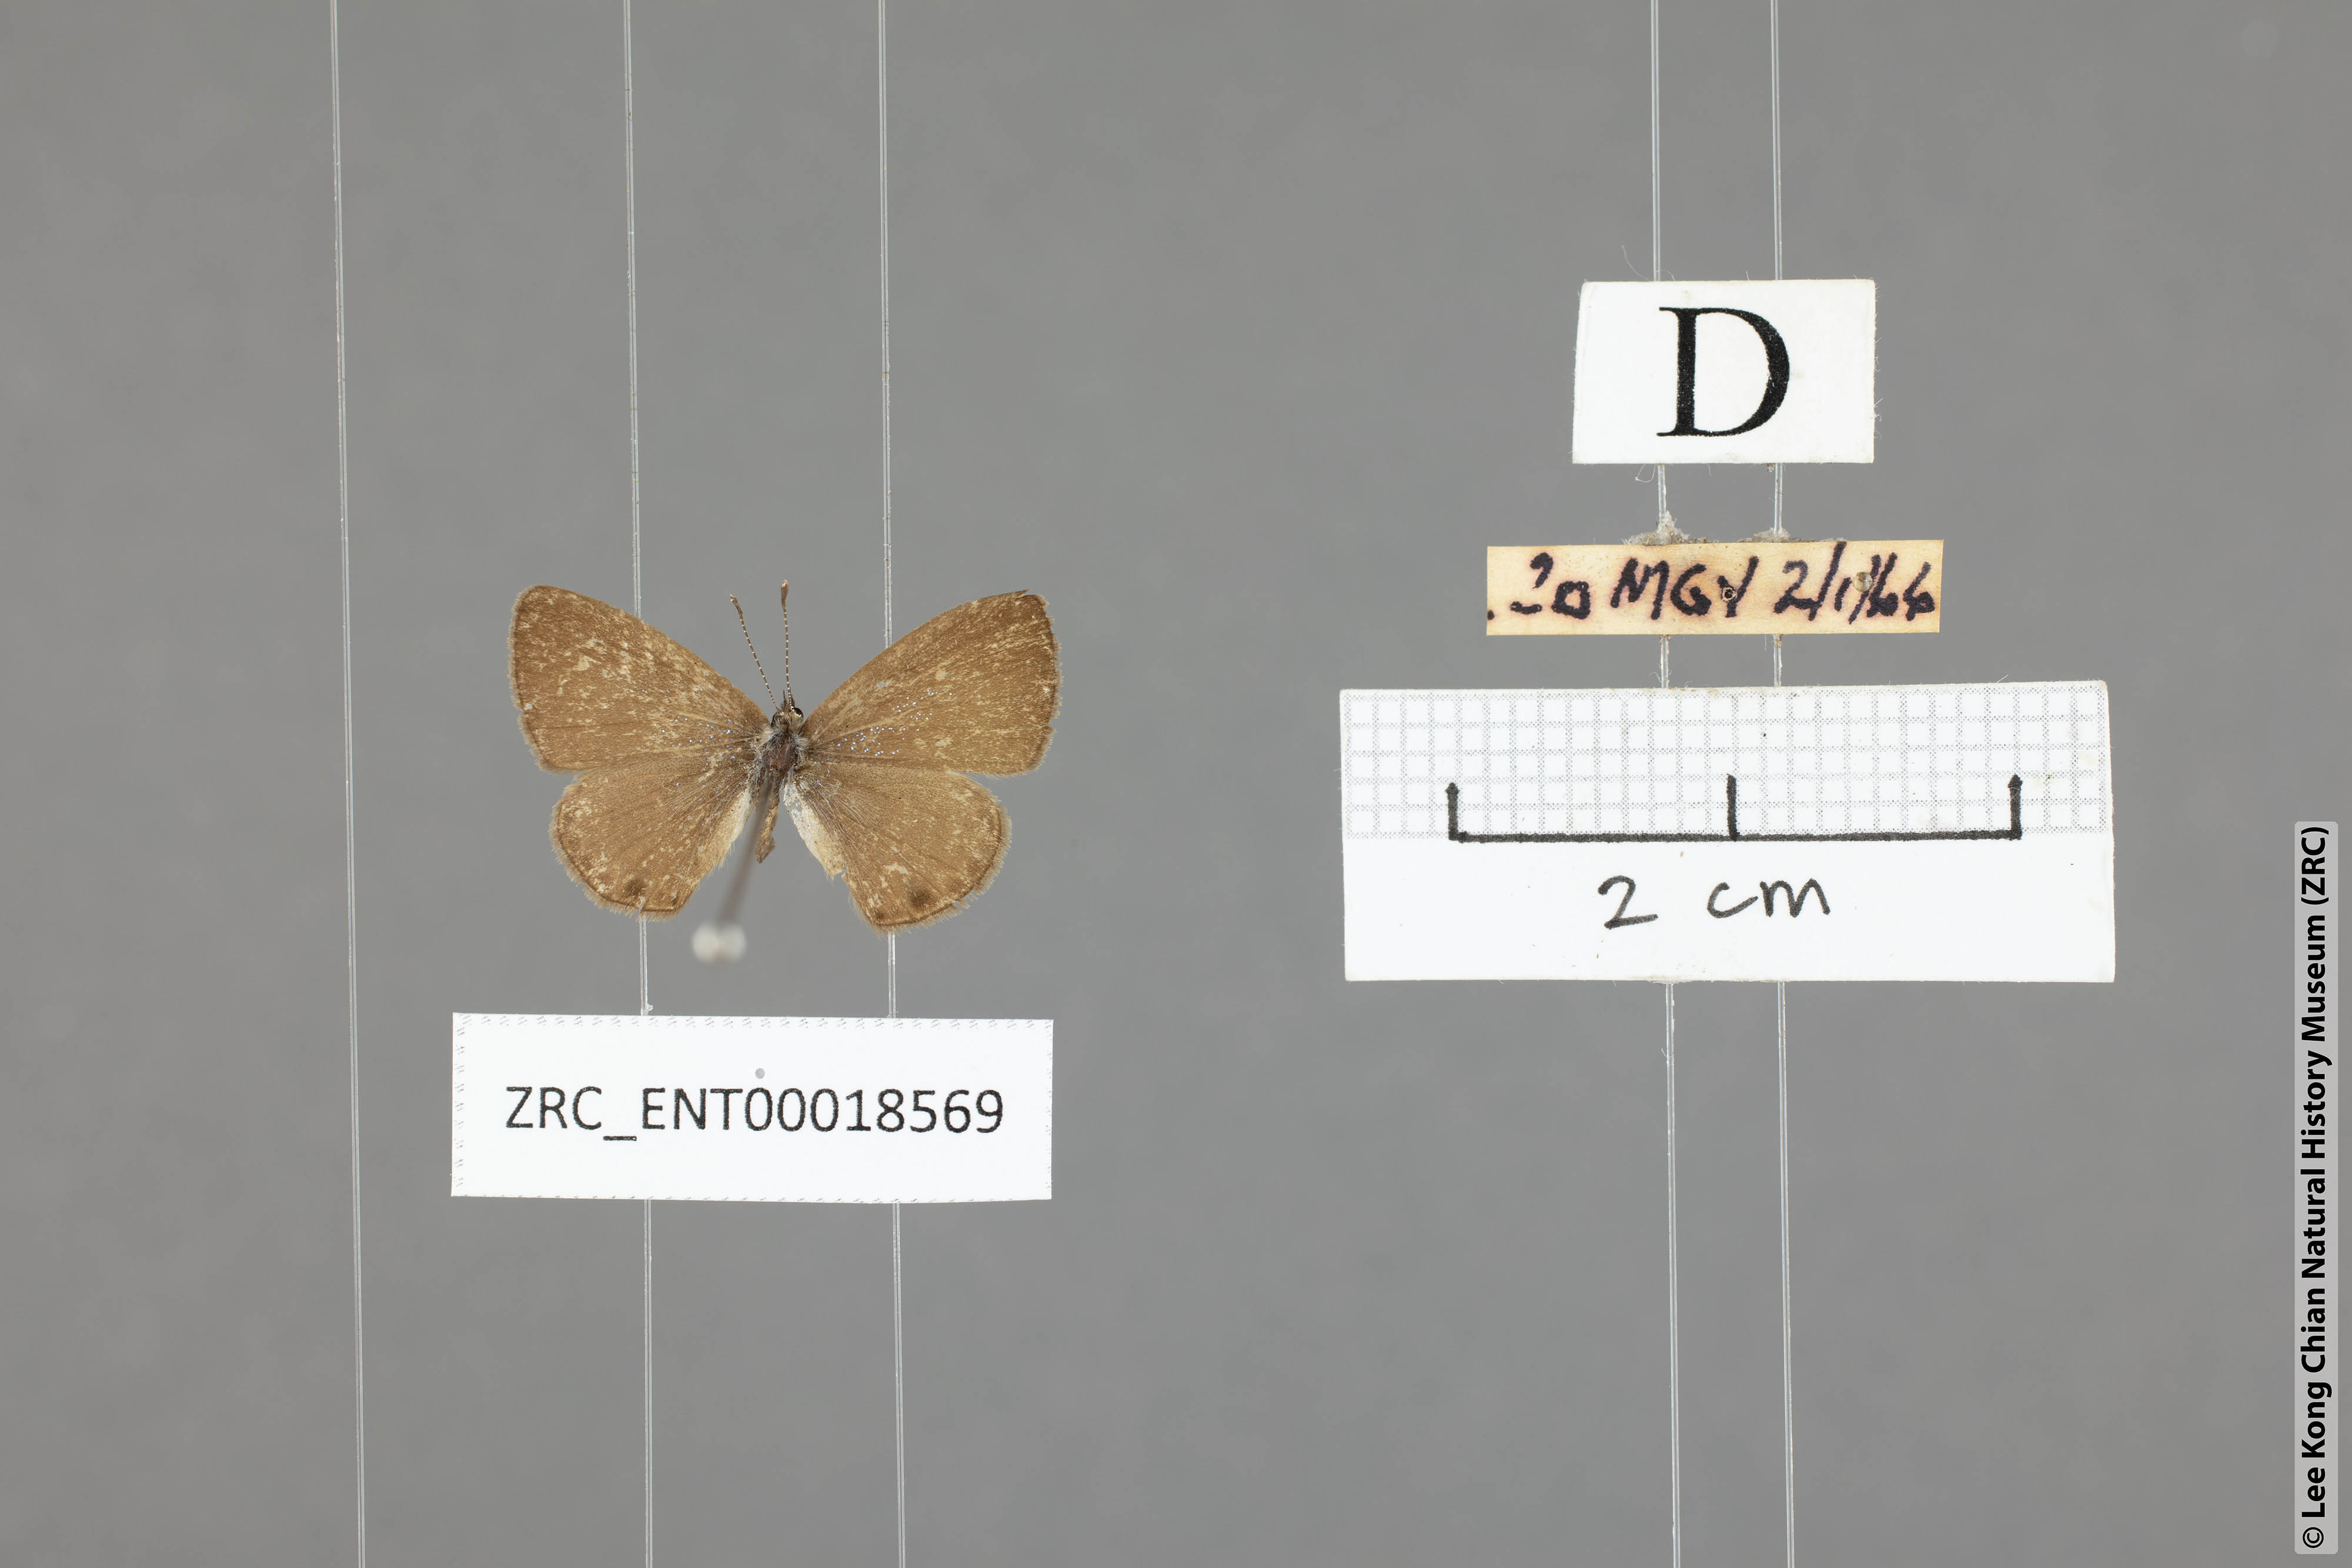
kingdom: Animalia
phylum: Arthropoda
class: Insecta
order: Lepidoptera
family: Lycaenidae
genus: Prosotas
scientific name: Prosotas dubiosa
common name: Tailless lineblue
